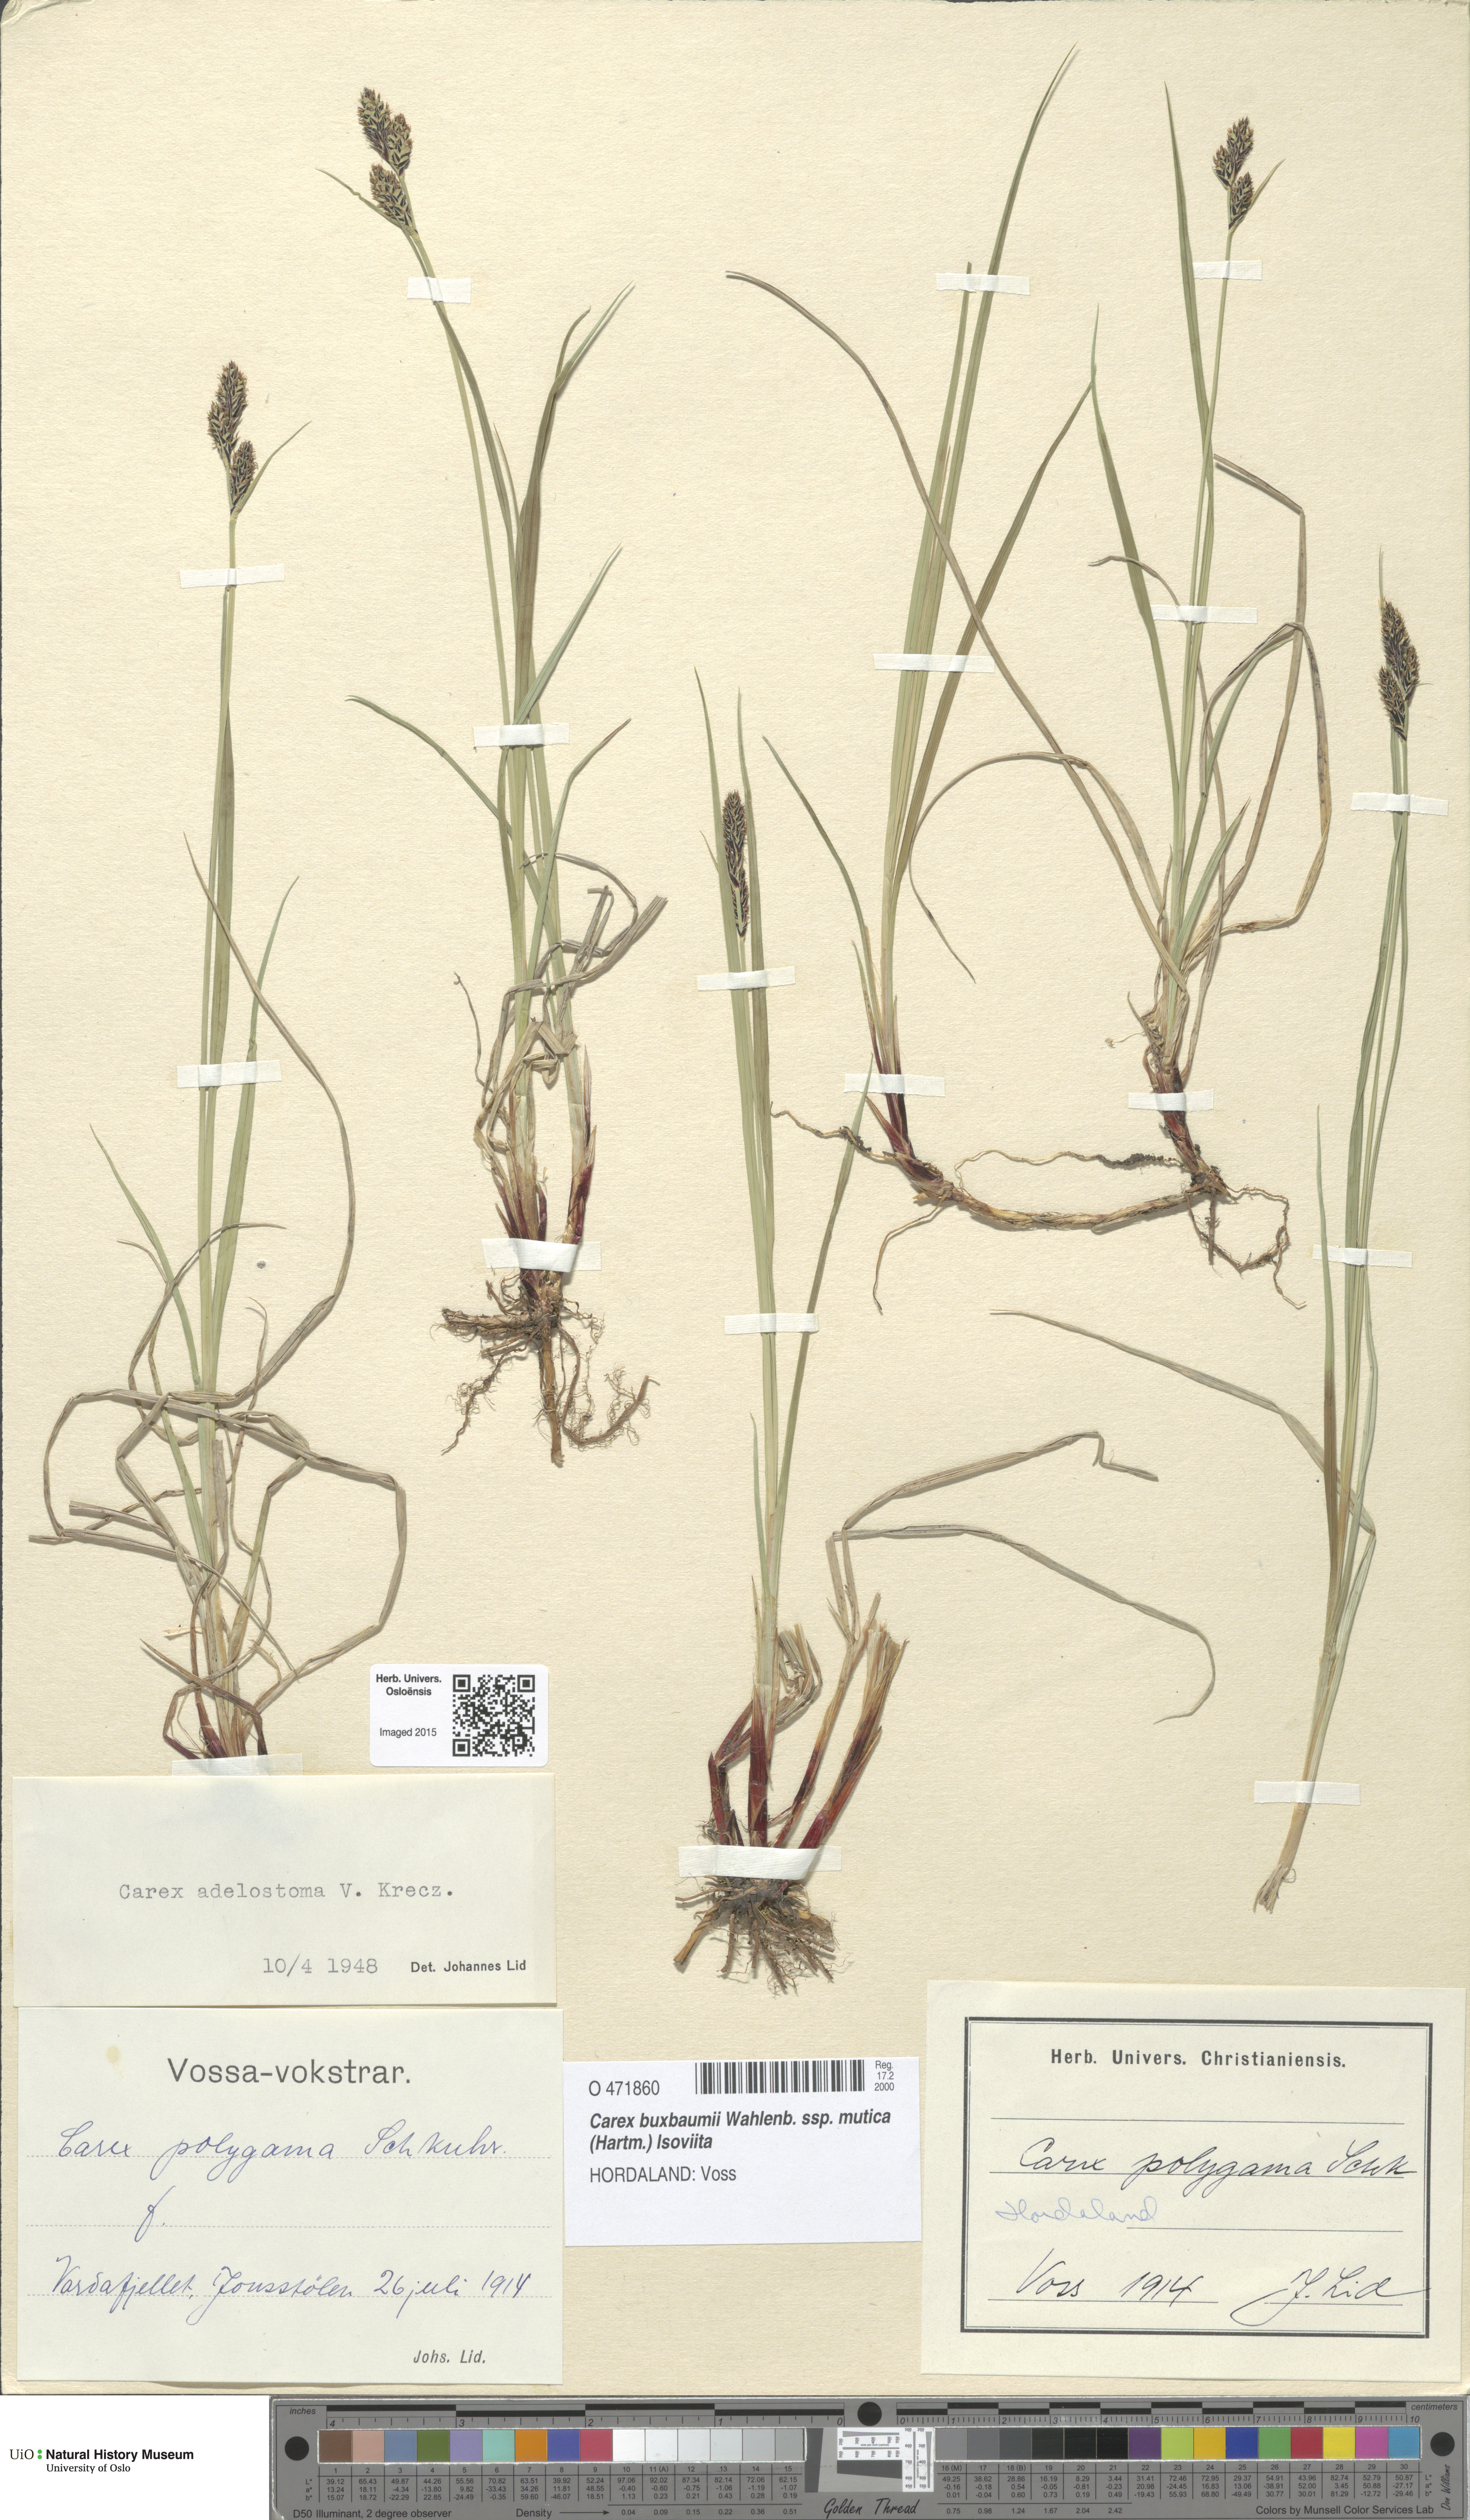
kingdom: Plantae
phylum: Tracheophyta
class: Liliopsida
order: Poales
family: Cyperaceae
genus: Carex
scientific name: Carex adelostoma
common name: Circumpolar sedge
